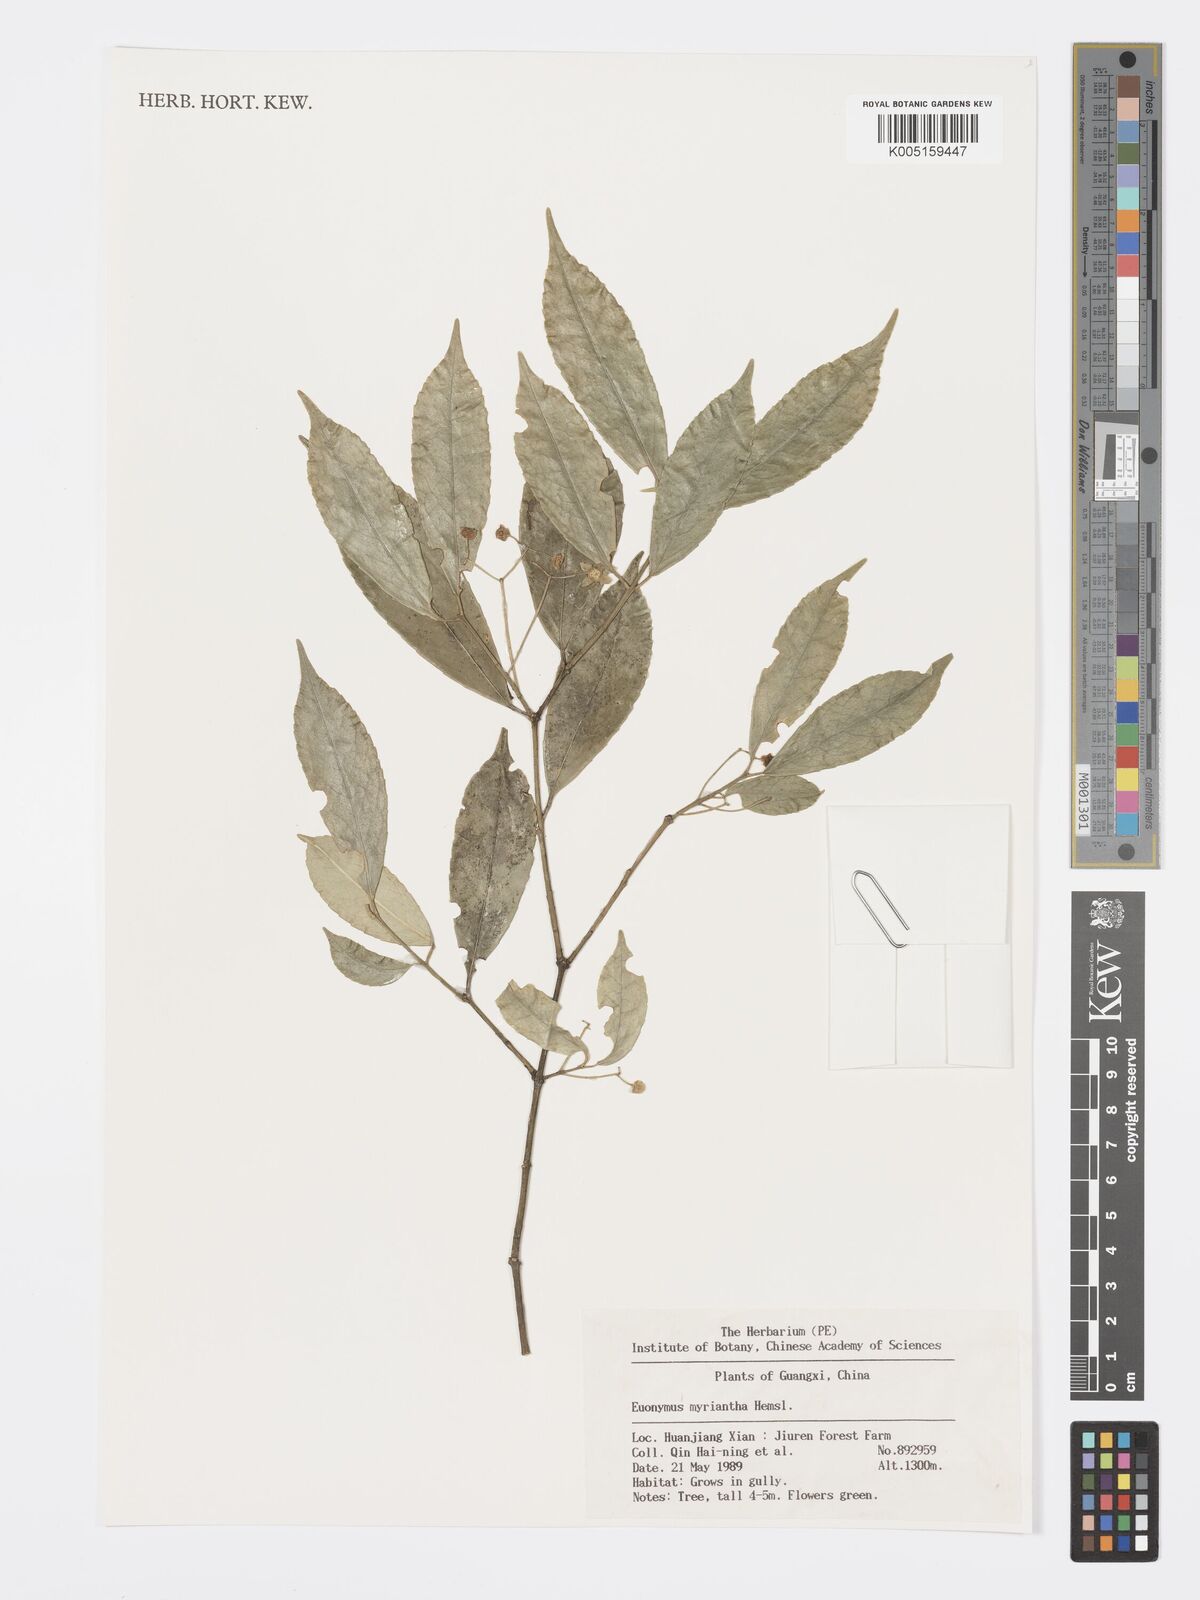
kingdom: Plantae
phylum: Tracheophyta
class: Magnoliopsida
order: Celastrales
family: Celastraceae
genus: Euonymus
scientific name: Euonymus myrianthus
